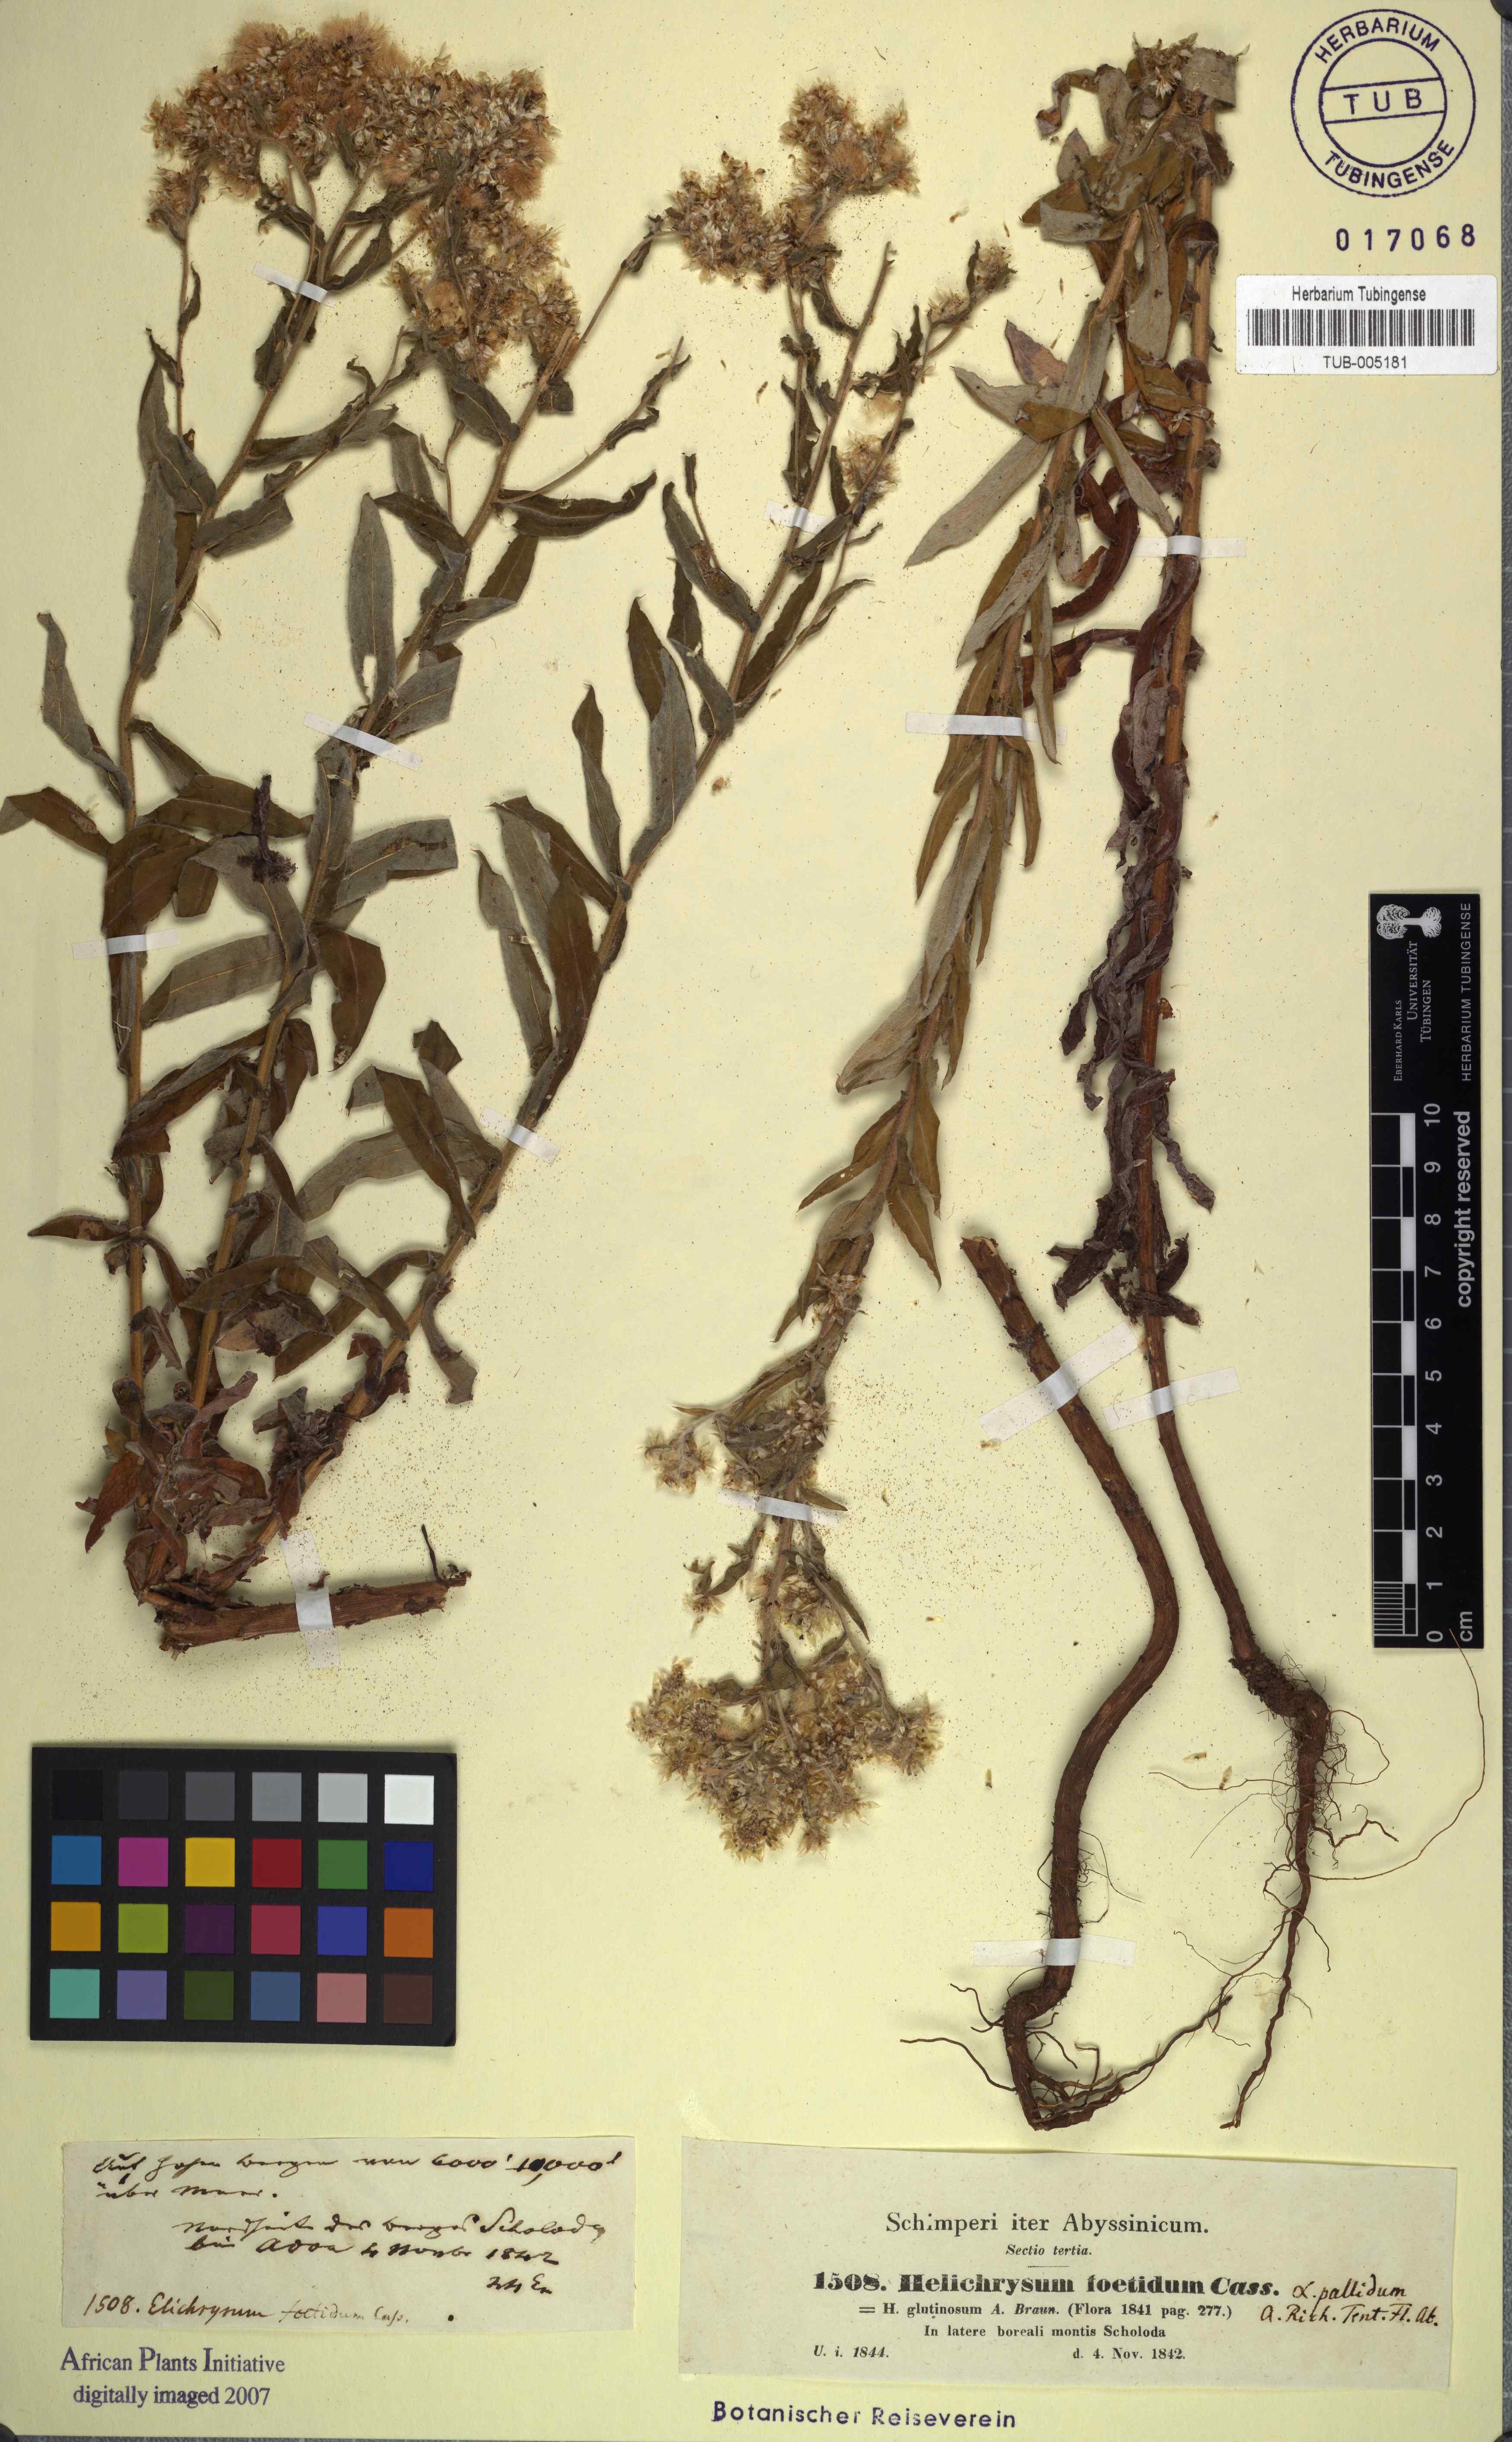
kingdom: Plantae
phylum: Tracheophyta
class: Magnoliopsida
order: Asterales
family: Asteraceae
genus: Helichrysum
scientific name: Helichrysum foetidum
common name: Stinking everlasting
